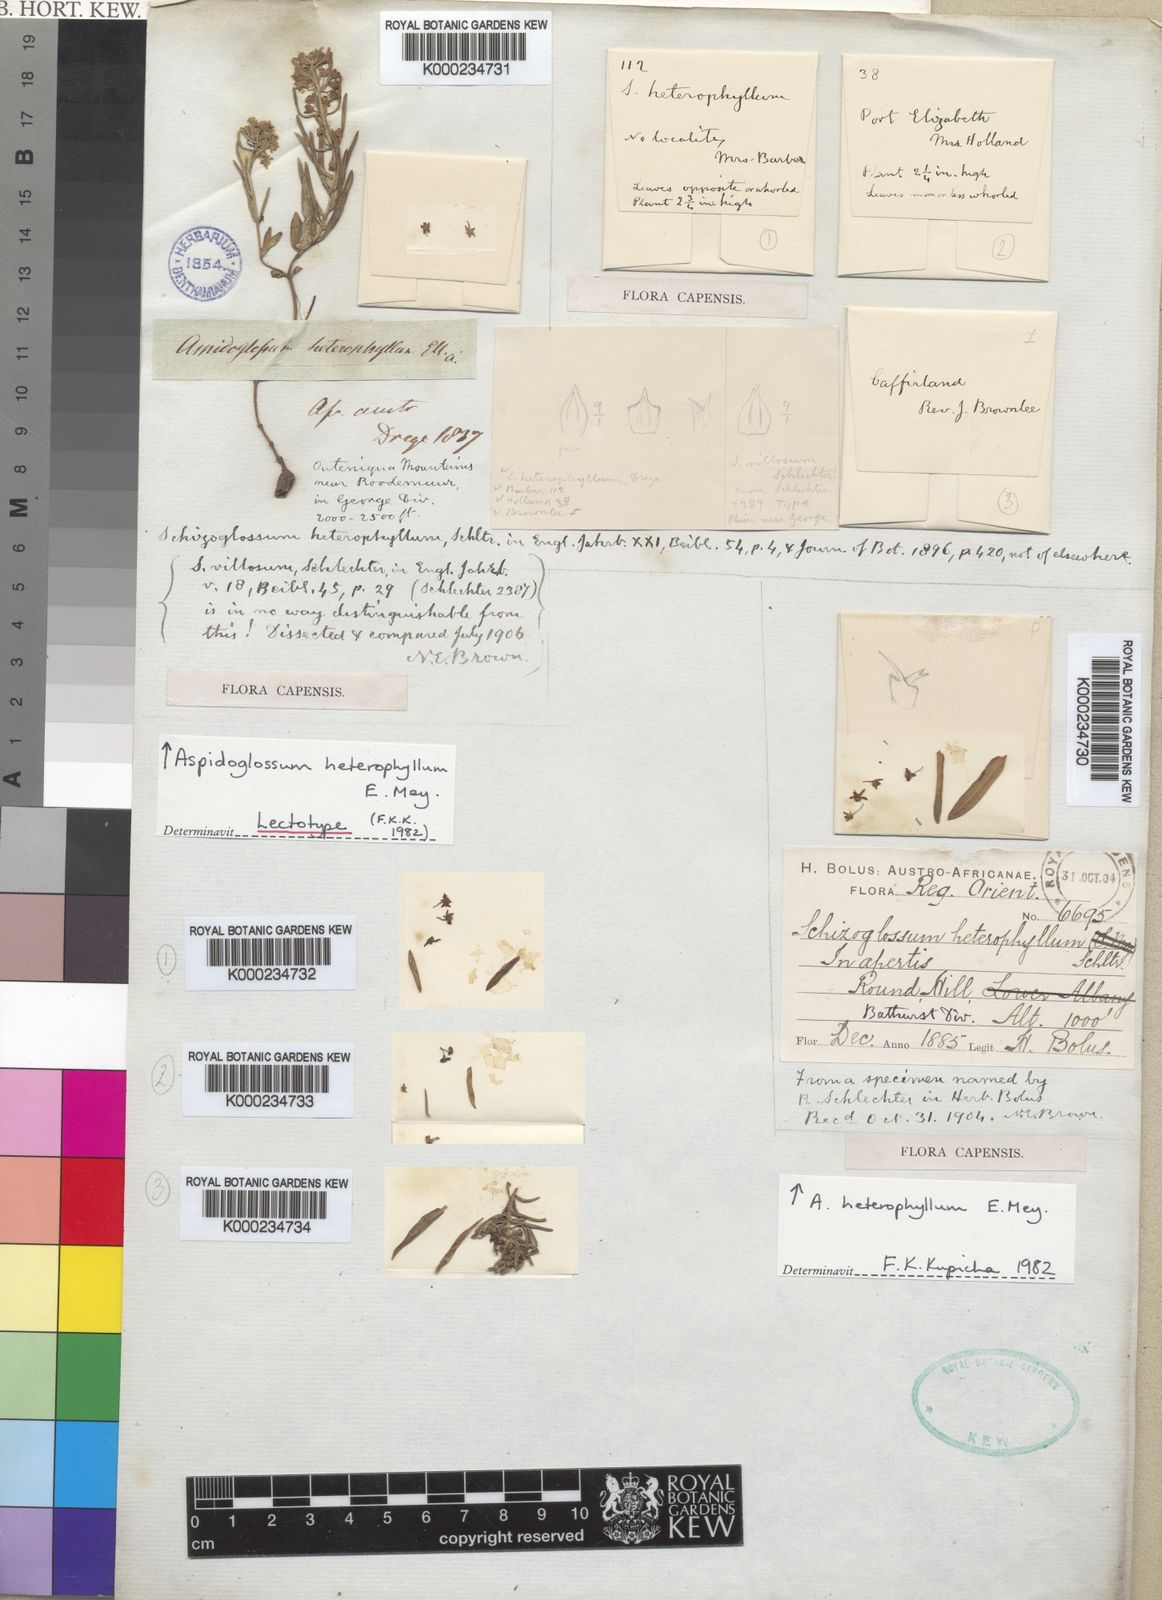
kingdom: Plantae
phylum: Tracheophyta
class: Magnoliopsida
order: Gentianales
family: Apocynaceae
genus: Aspidoglossum
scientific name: Aspidoglossum heterophyllum
